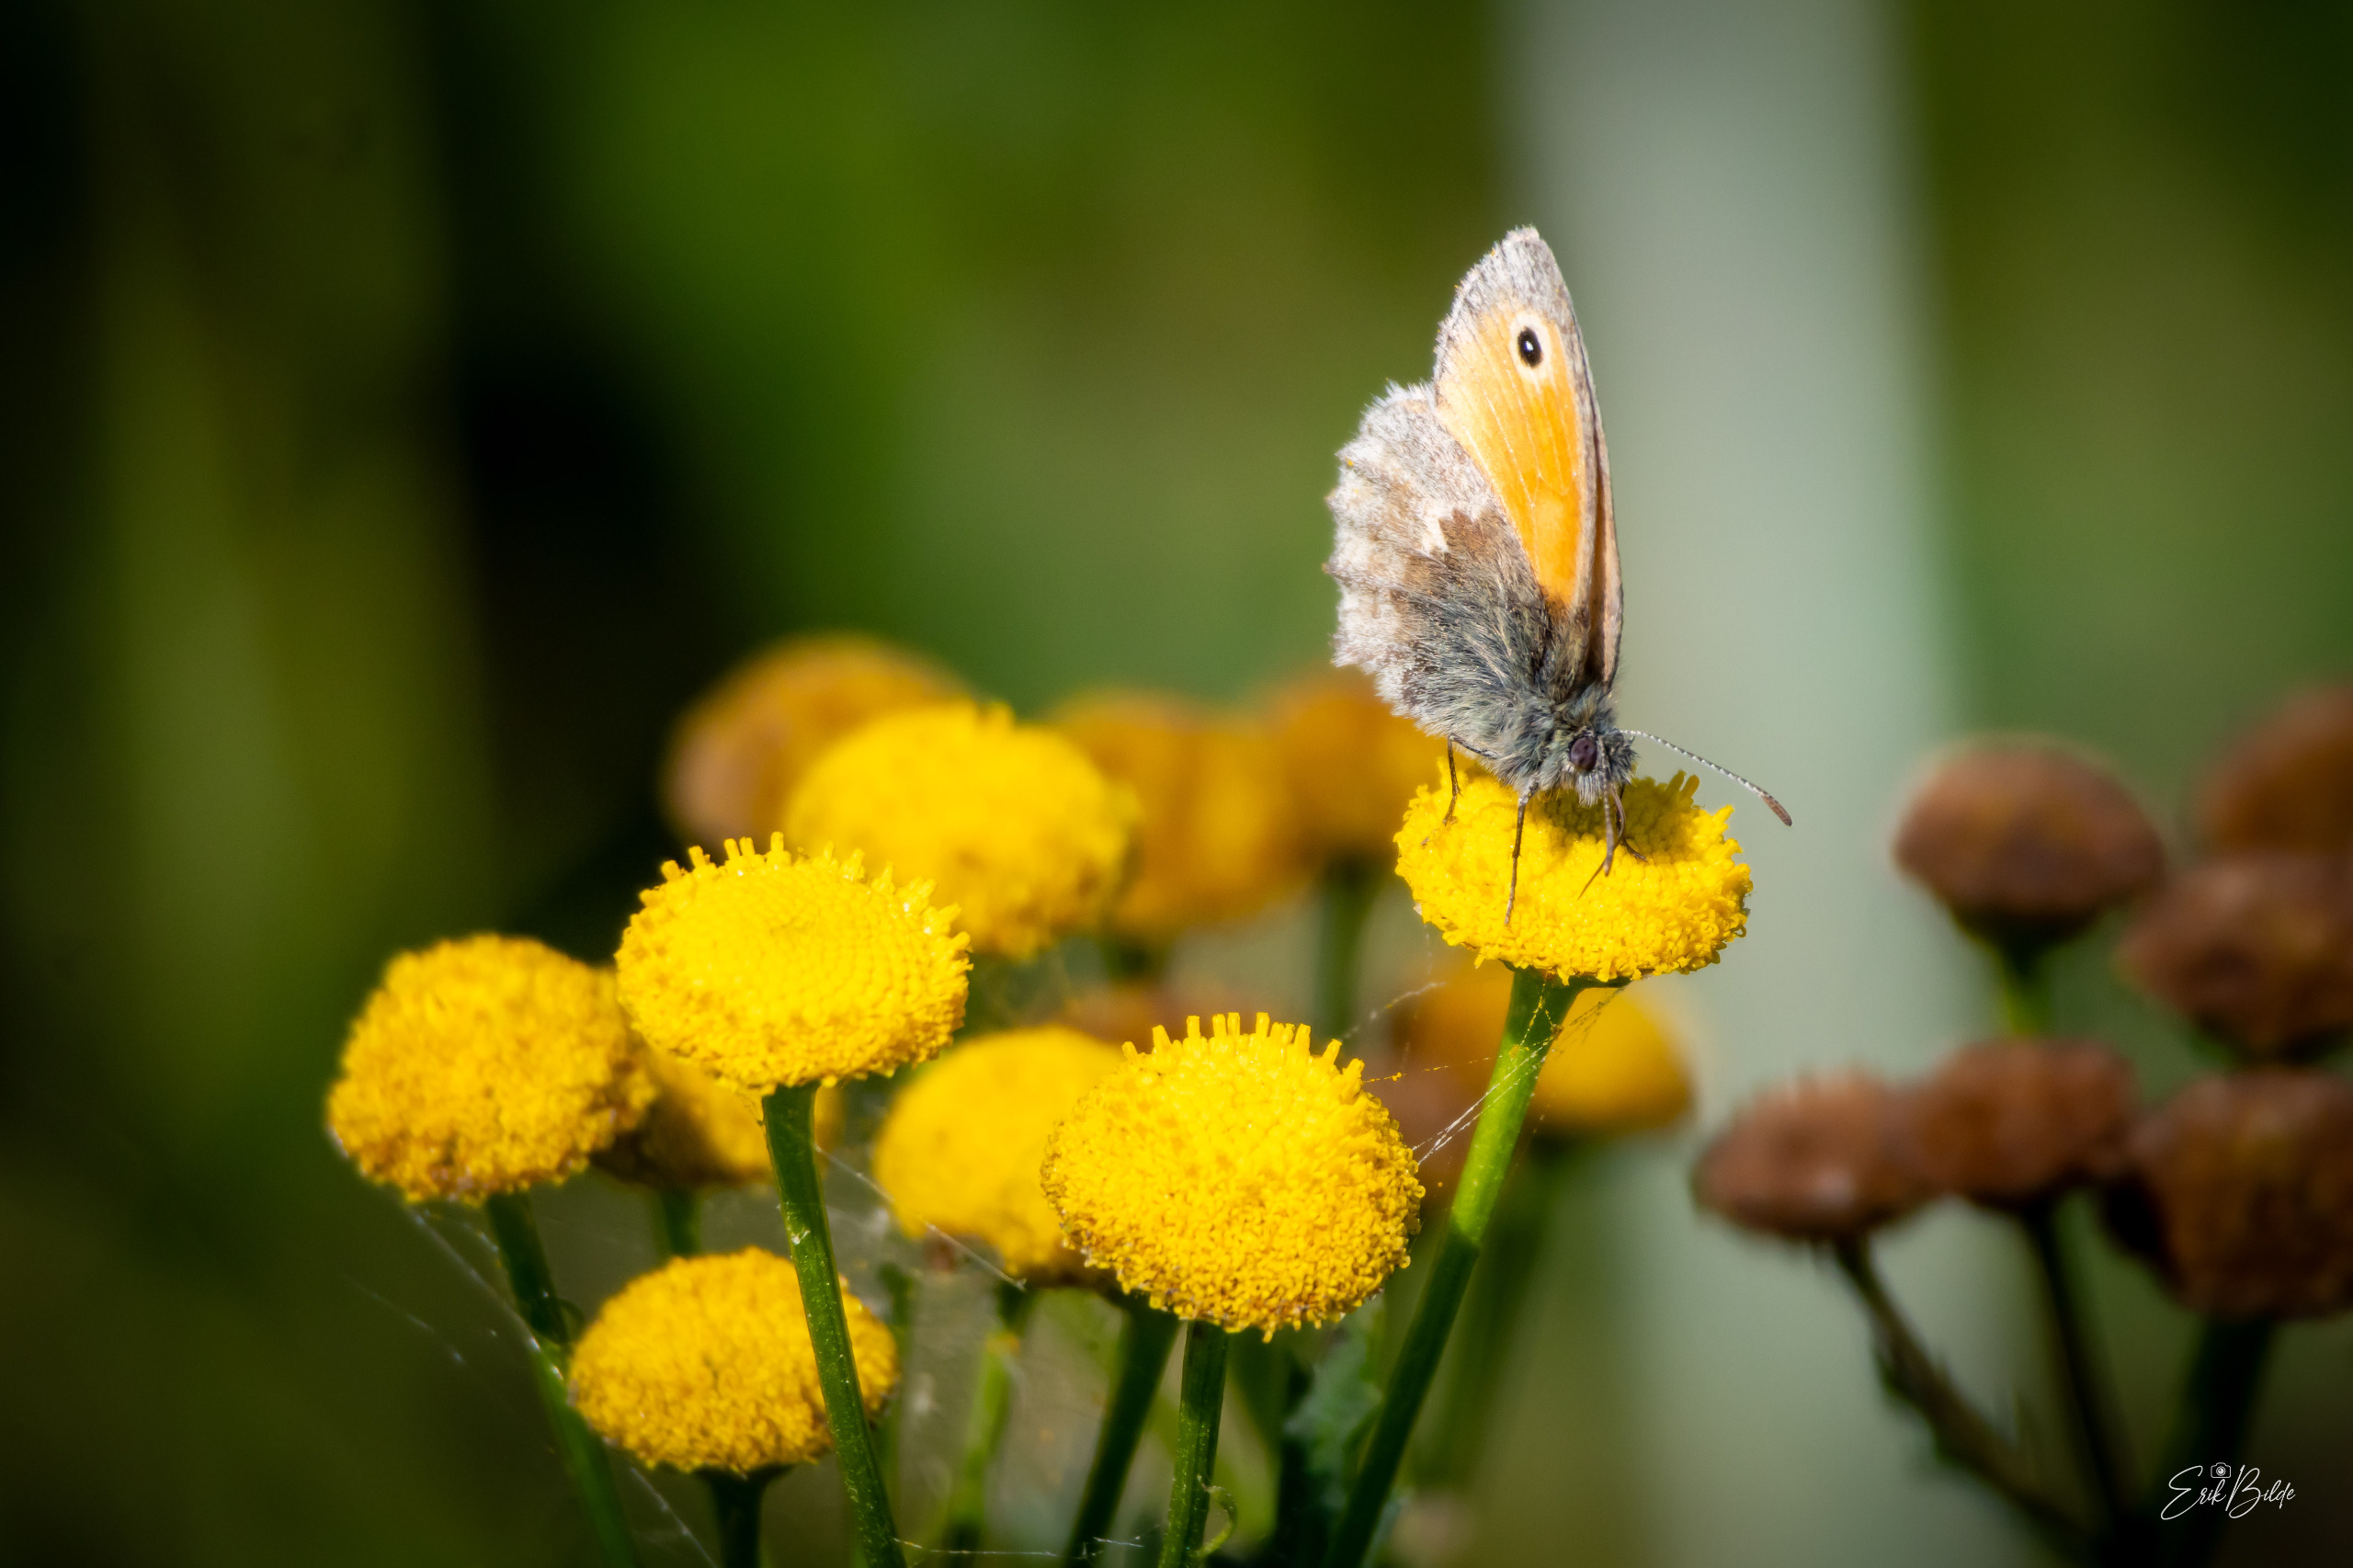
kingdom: Animalia
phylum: Arthropoda
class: Insecta
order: Lepidoptera
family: Nymphalidae
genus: Coenonympha
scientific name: Coenonympha pamphilus
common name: Okkergul randøje
